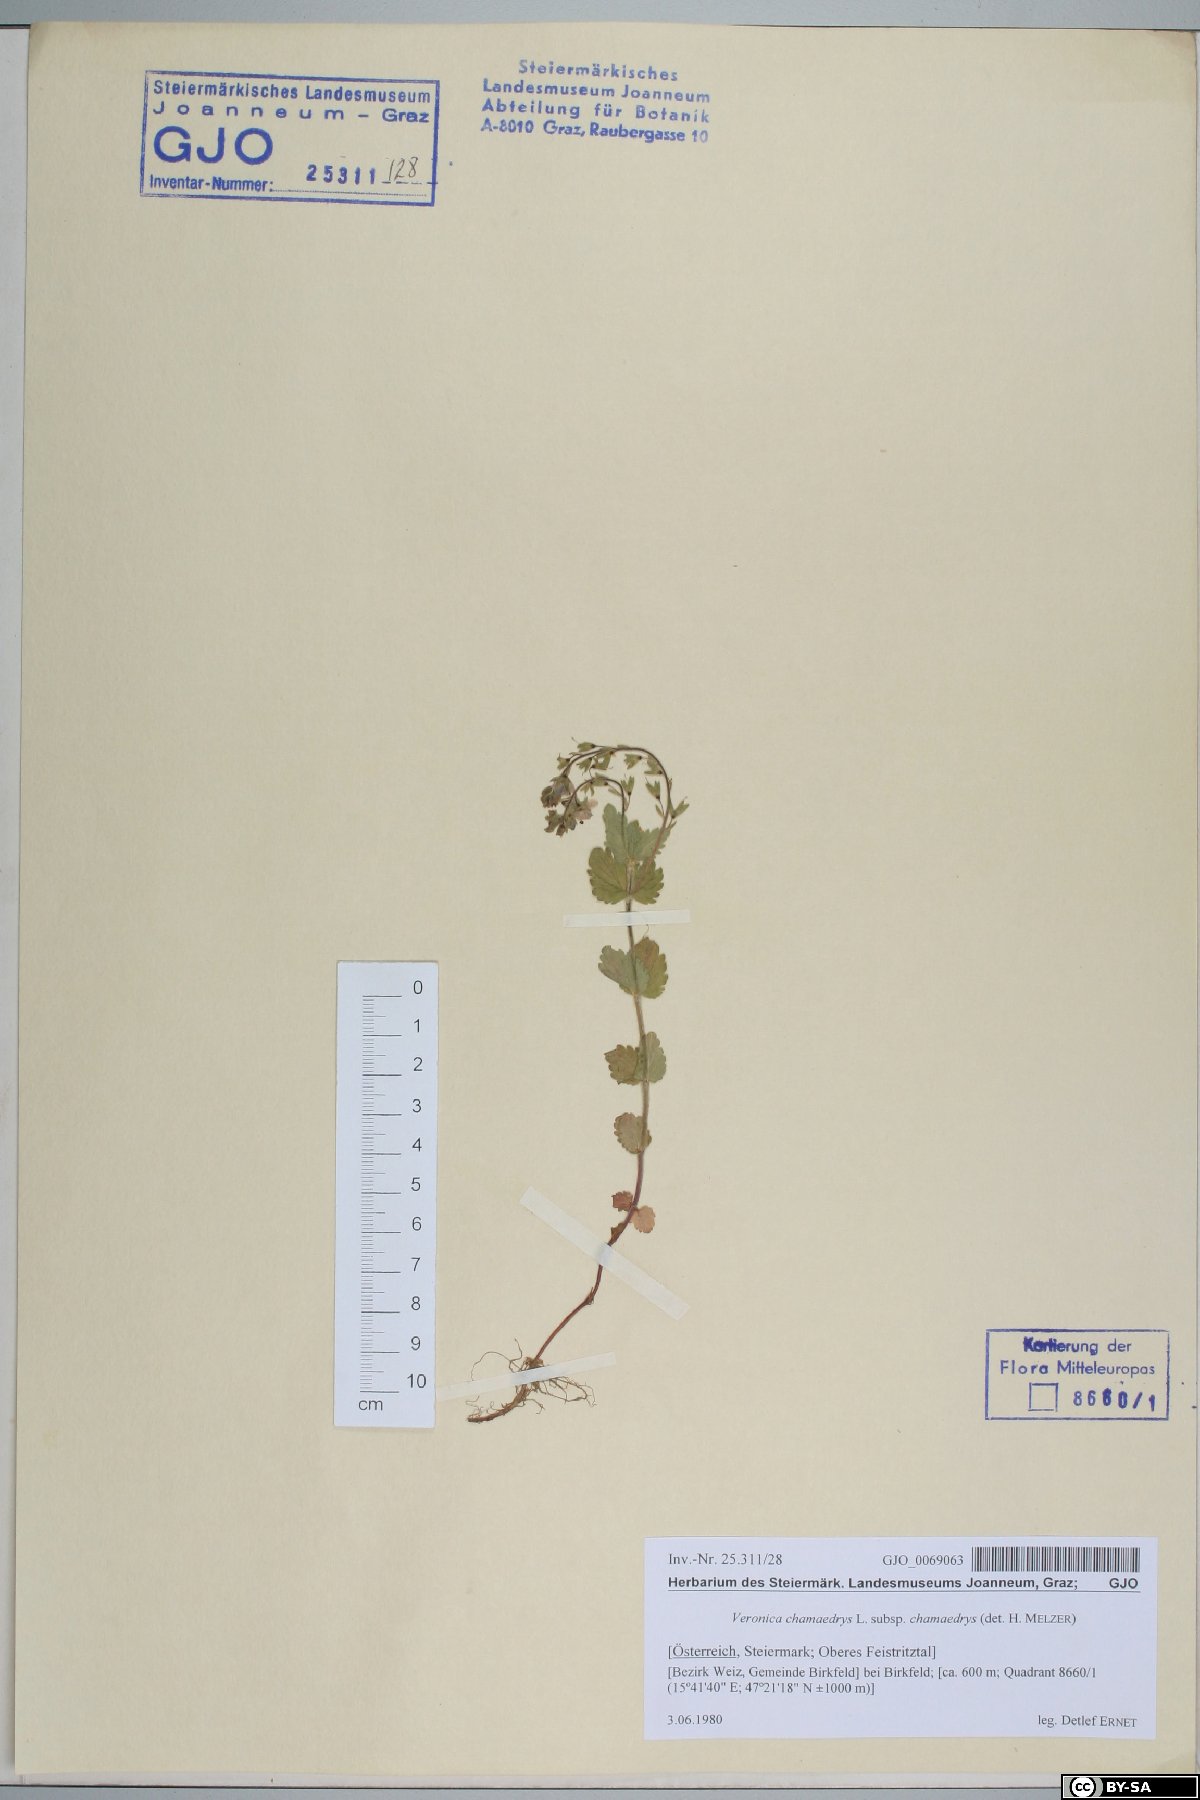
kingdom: Plantae
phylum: Tracheophyta
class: Magnoliopsida
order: Lamiales
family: Plantaginaceae
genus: Veronica
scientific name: Veronica chamaedrys
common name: Germander speedwell
